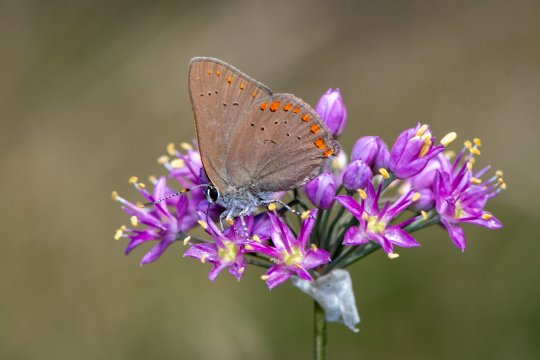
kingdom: Animalia
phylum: Arthropoda
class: Insecta
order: Lepidoptera
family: Lycaenidae
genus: Harkenclenus
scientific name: Harkenclenus titus
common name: Coral Hairstreak
